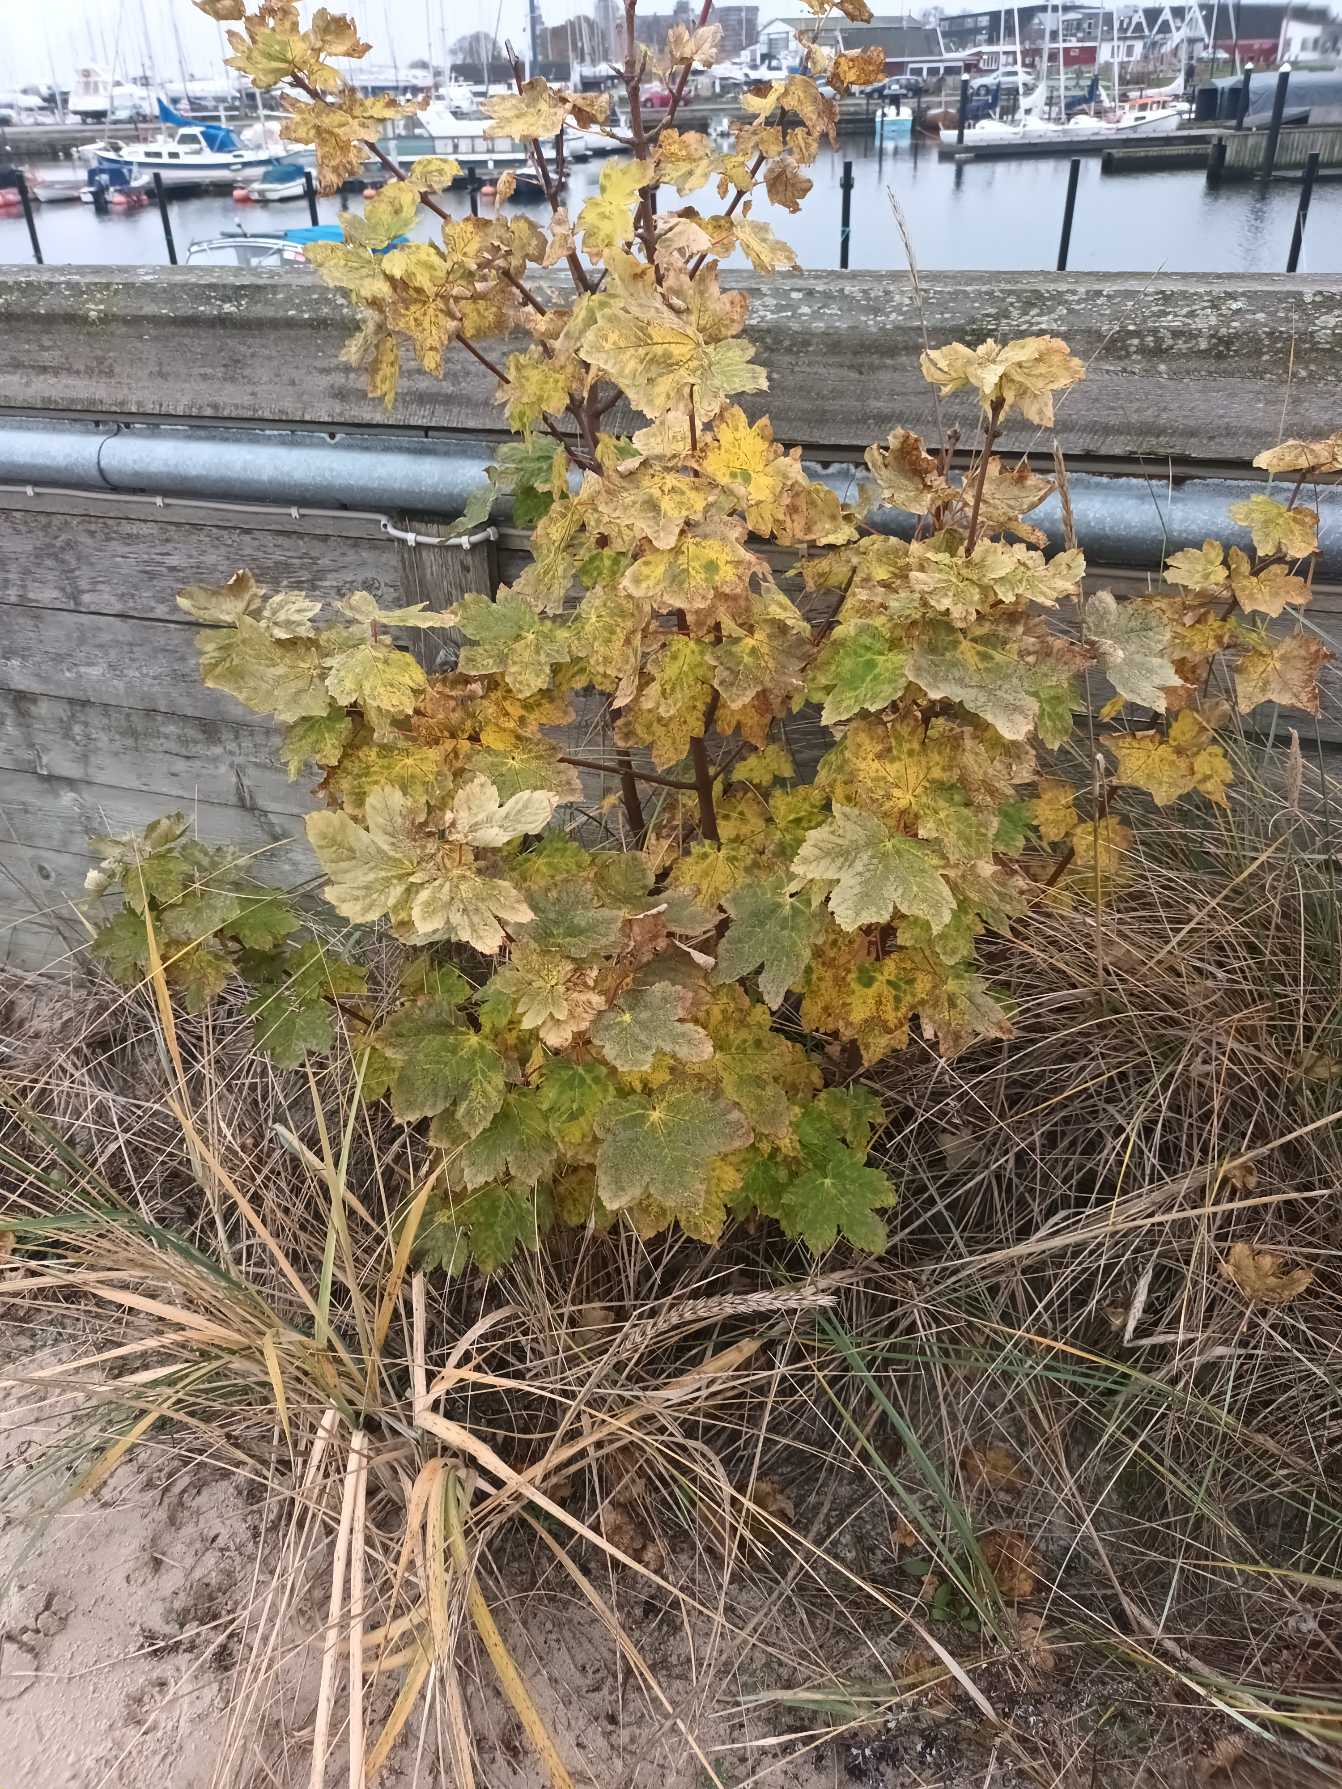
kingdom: Plantae
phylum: Tracheophyta
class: Magnoliopsida
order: Sapindales
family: Sapindaceae
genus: Acer
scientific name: Acer pseudoplatanus
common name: Ahorn
